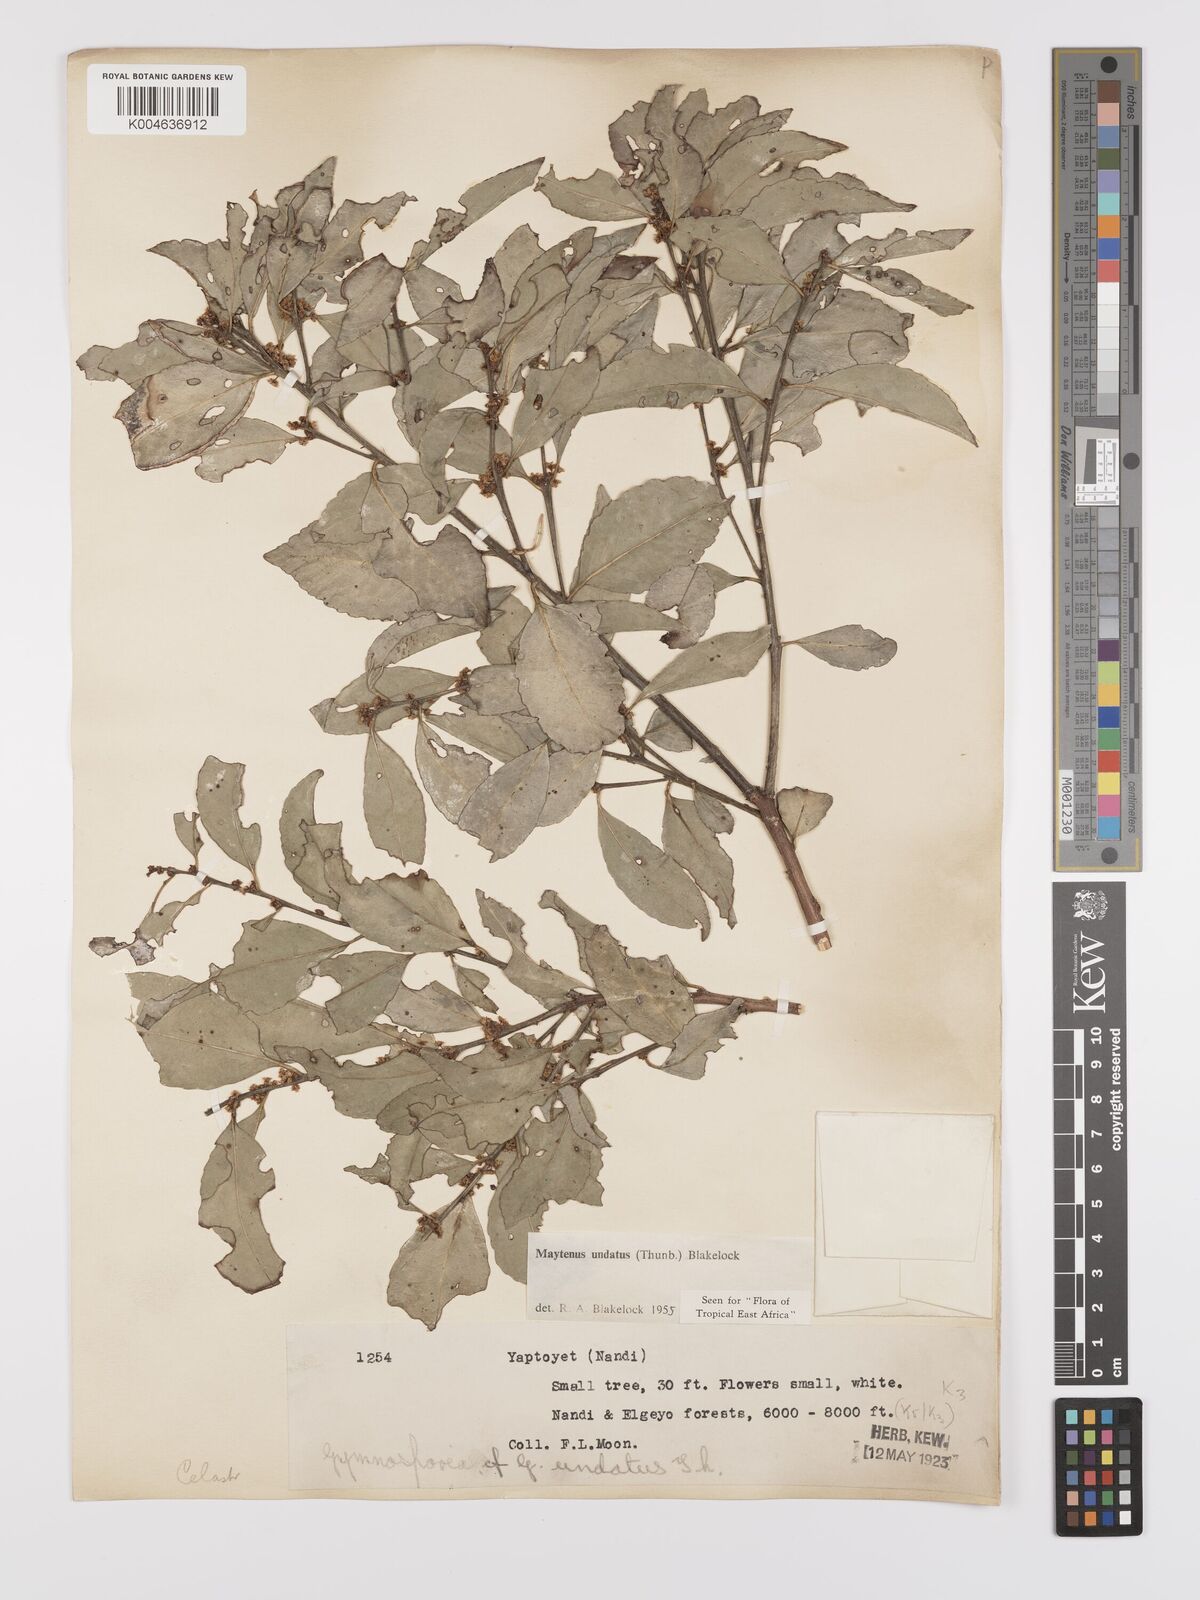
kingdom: Plantae
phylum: Tracheophyta
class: Magnoliopsida
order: Celastrales
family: Celastraceae
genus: Gymnosporia
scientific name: Gymnosporia undata
